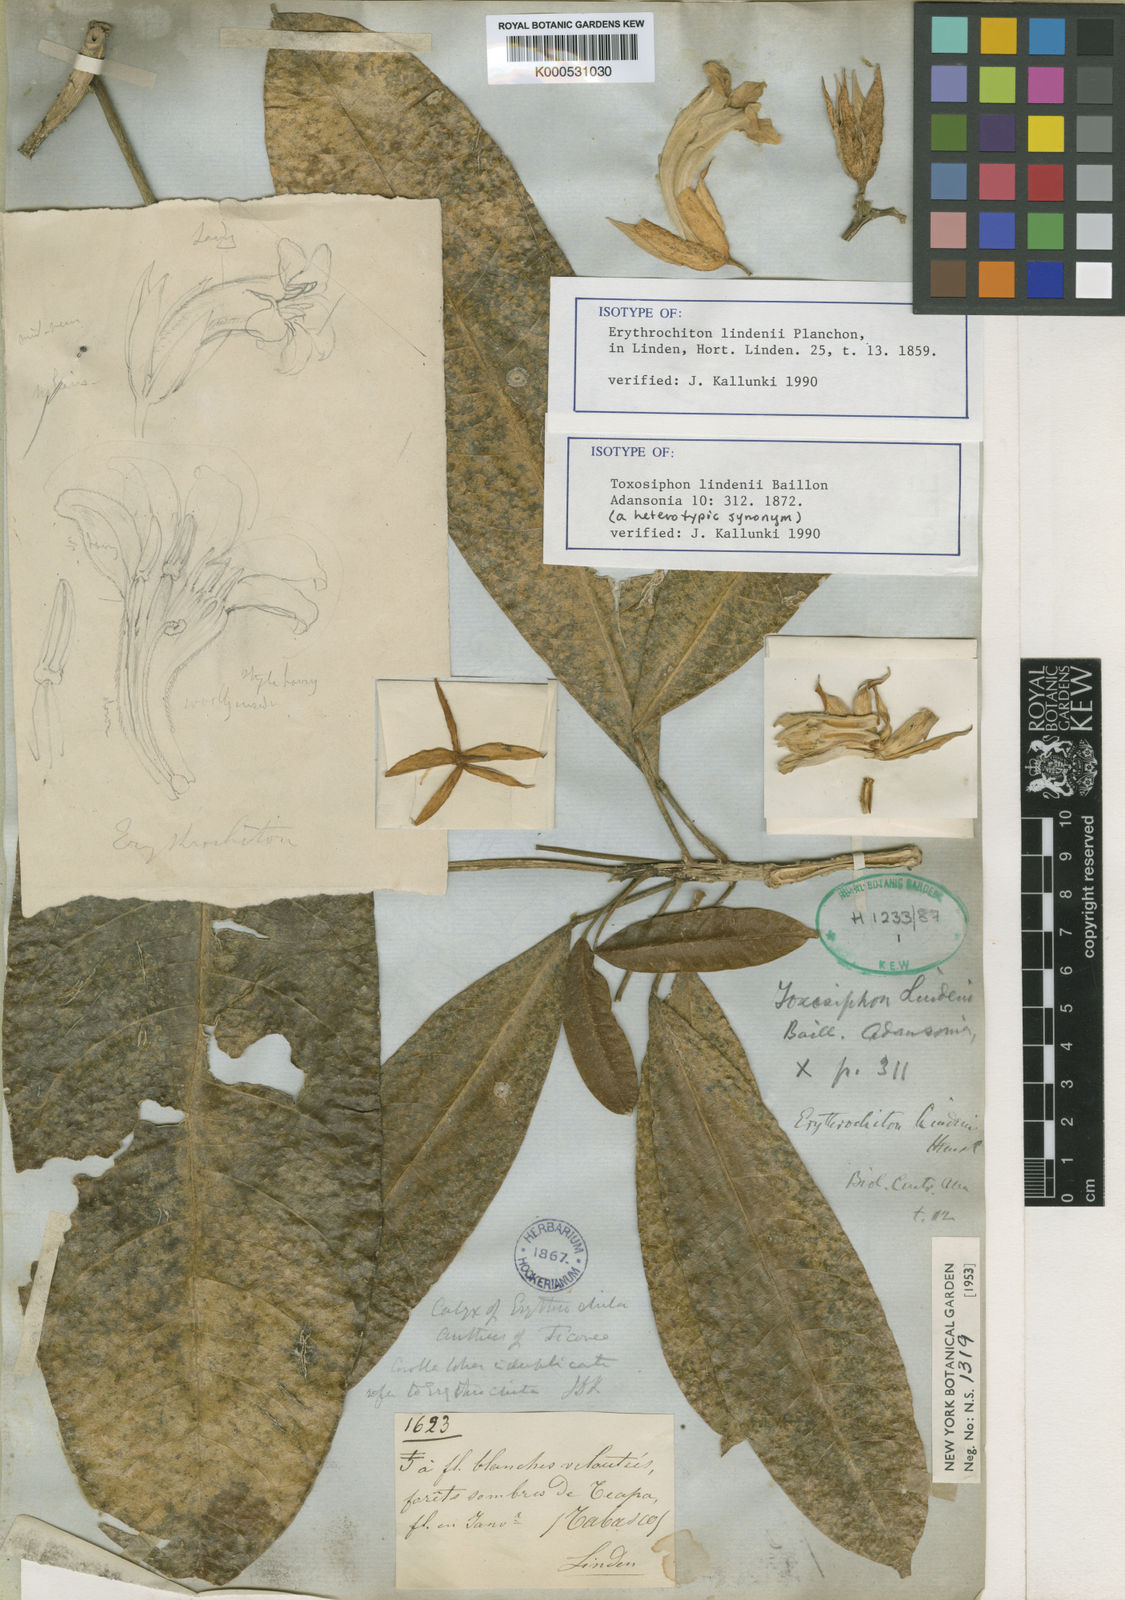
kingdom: Plantae
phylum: Tracheophyta
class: Magnoliopsida
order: Sapindales
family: Rutaceae
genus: Toxosiphon
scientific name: Toxosiphon lindenii
